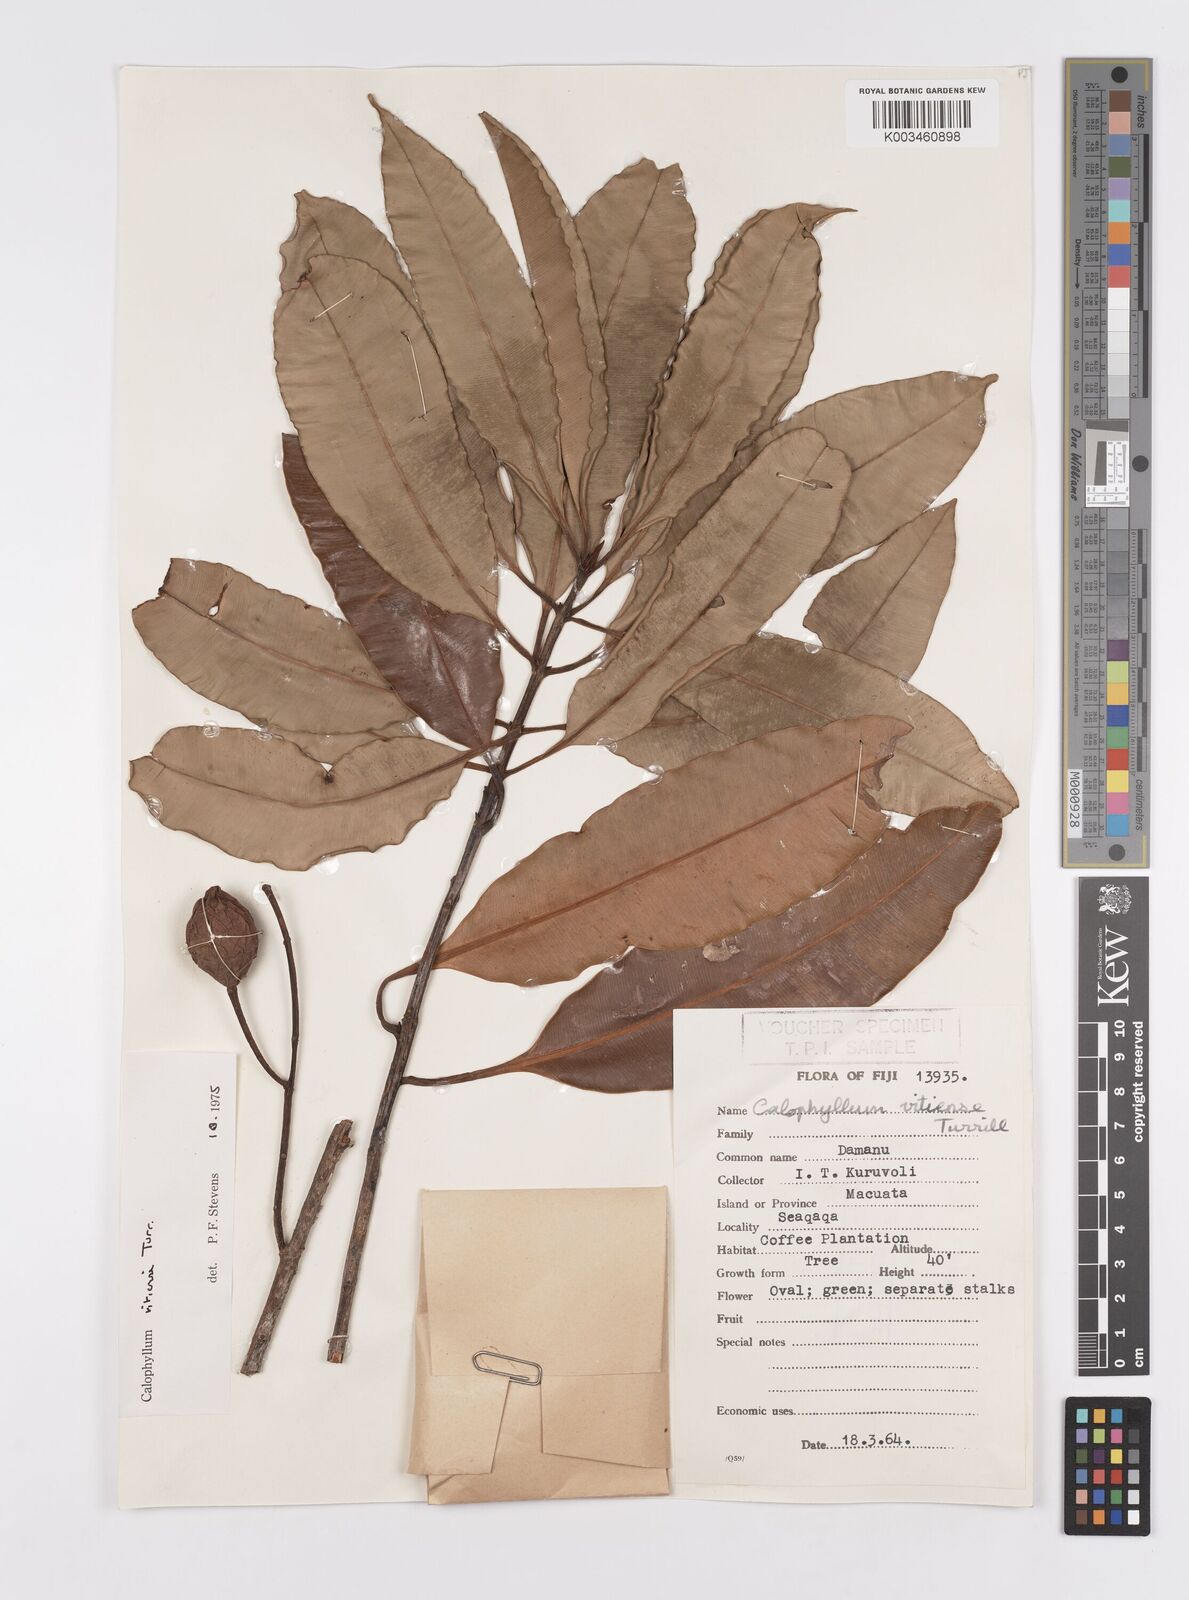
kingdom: Plantae
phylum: Tracheophyta
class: Magnoliopsida
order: Malpighiales
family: Calophyllaceae
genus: Calophyllum
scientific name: Calophyllum vitiense
